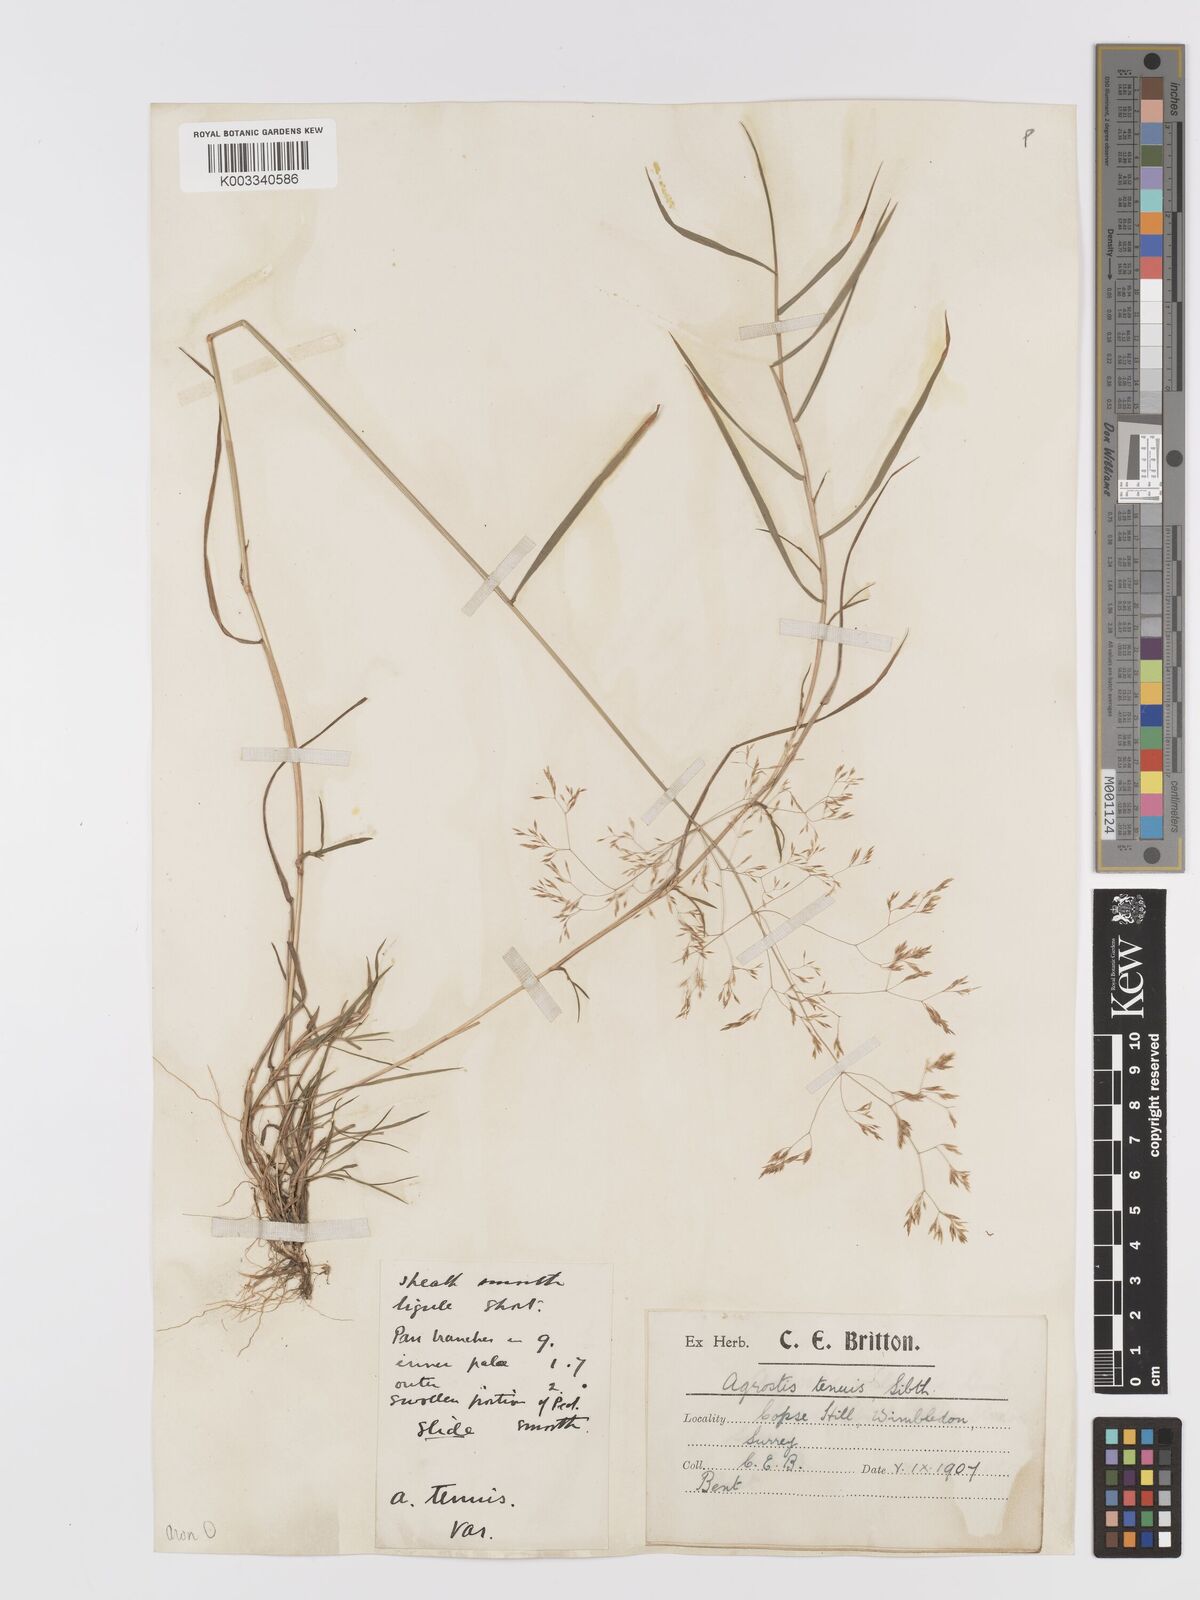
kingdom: Plantae
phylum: Tracheophyta
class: Liliopsida
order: Poales
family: Poaceae
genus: Agrostis
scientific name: Agrostis capillaris
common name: Colonial bentgrass
